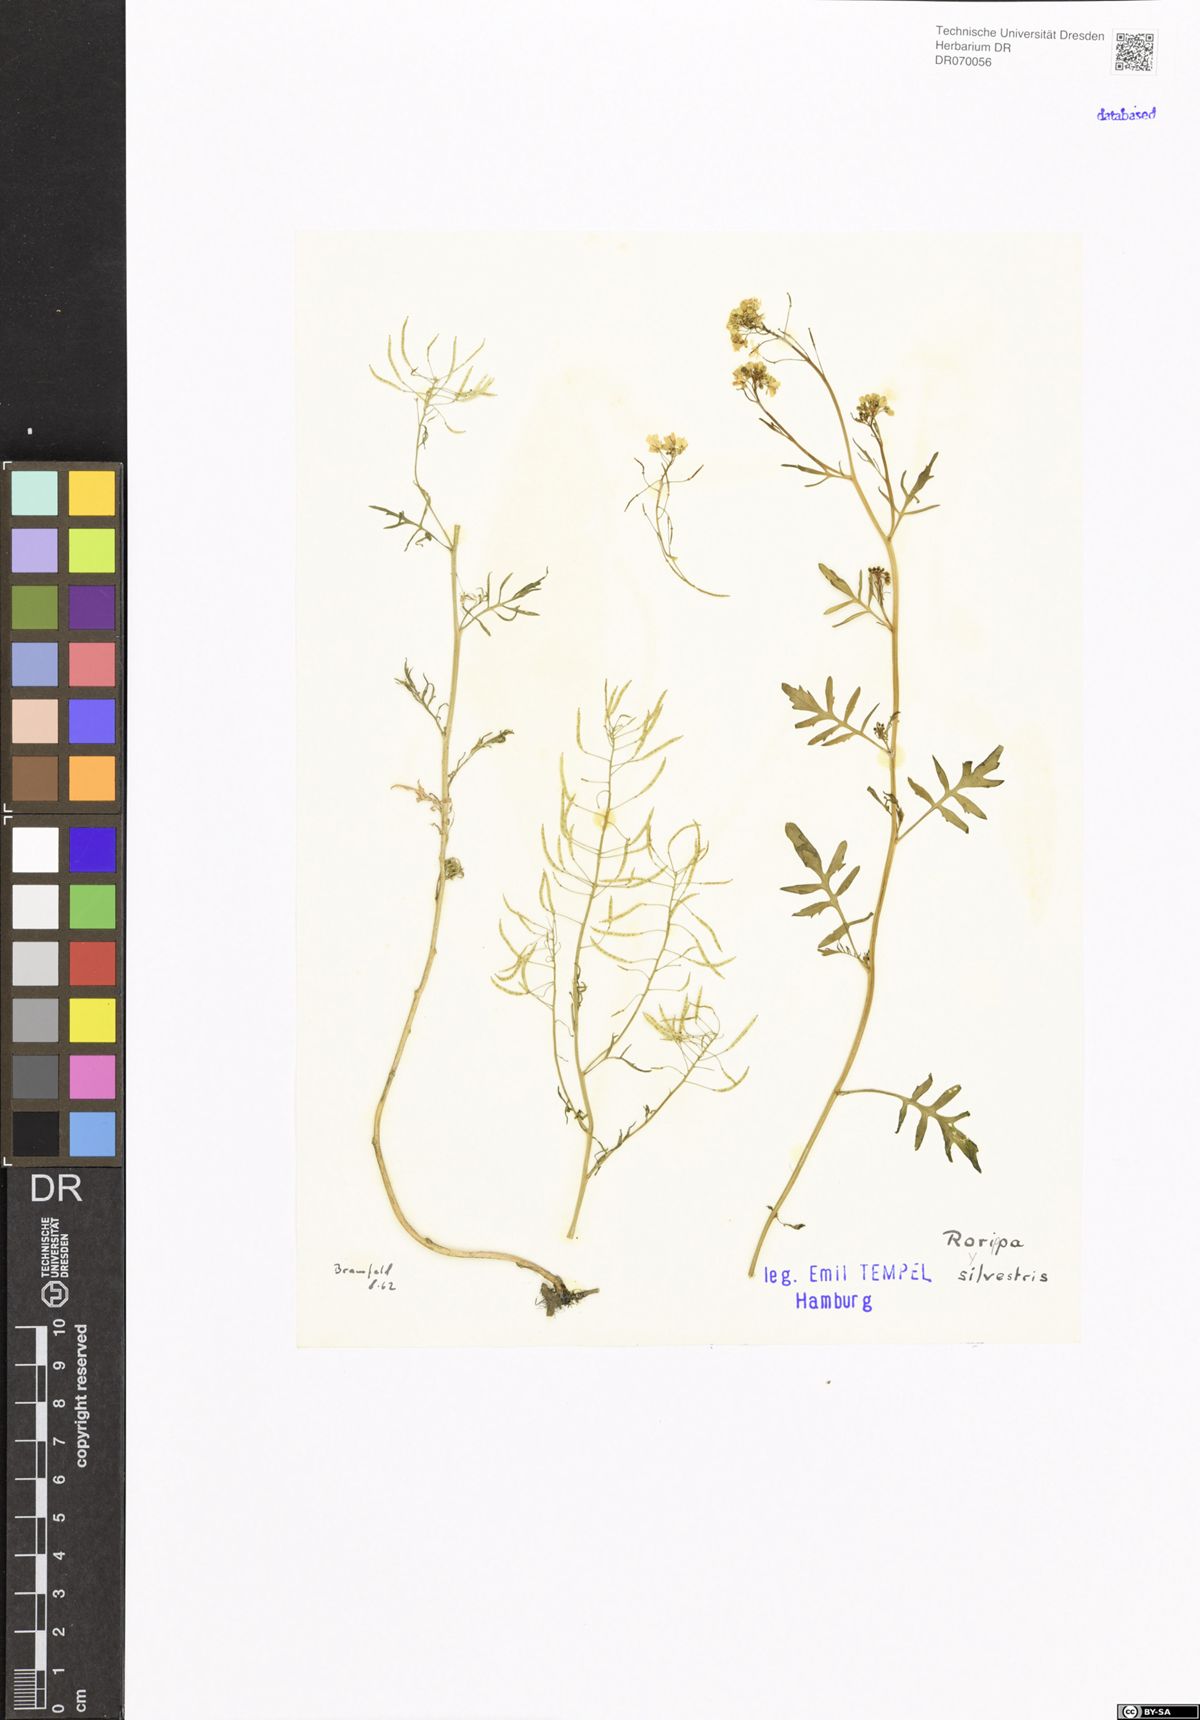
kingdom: Plantae
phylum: Tracheophyta
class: Magnoliopsida
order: Brassicales
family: Brassicaceae
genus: Rorippa
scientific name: Rorippa sylvestris
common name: Creeping yellowcress
